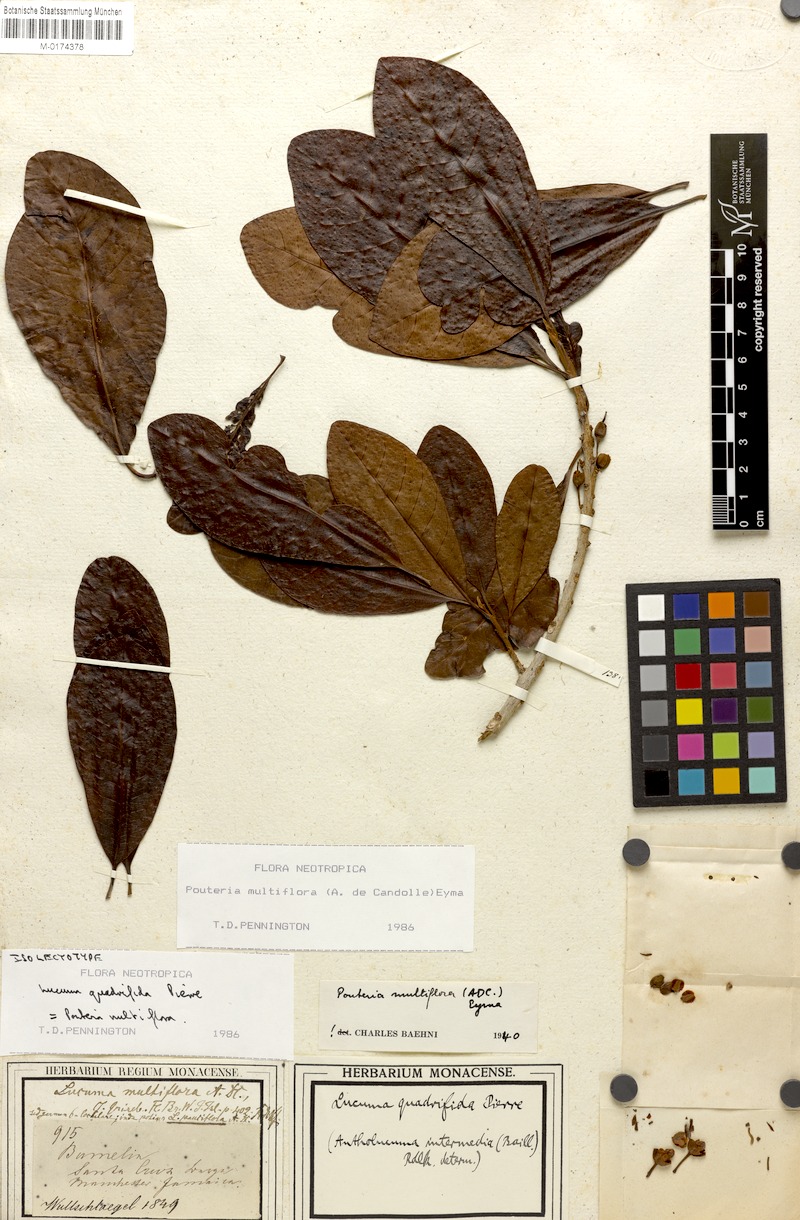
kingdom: Plantae
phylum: Tracheophyta
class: Magnoliopsida
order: Ericales
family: Sapotaceae
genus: Pouteria
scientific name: Pouteria multiflora
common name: Bullytree
